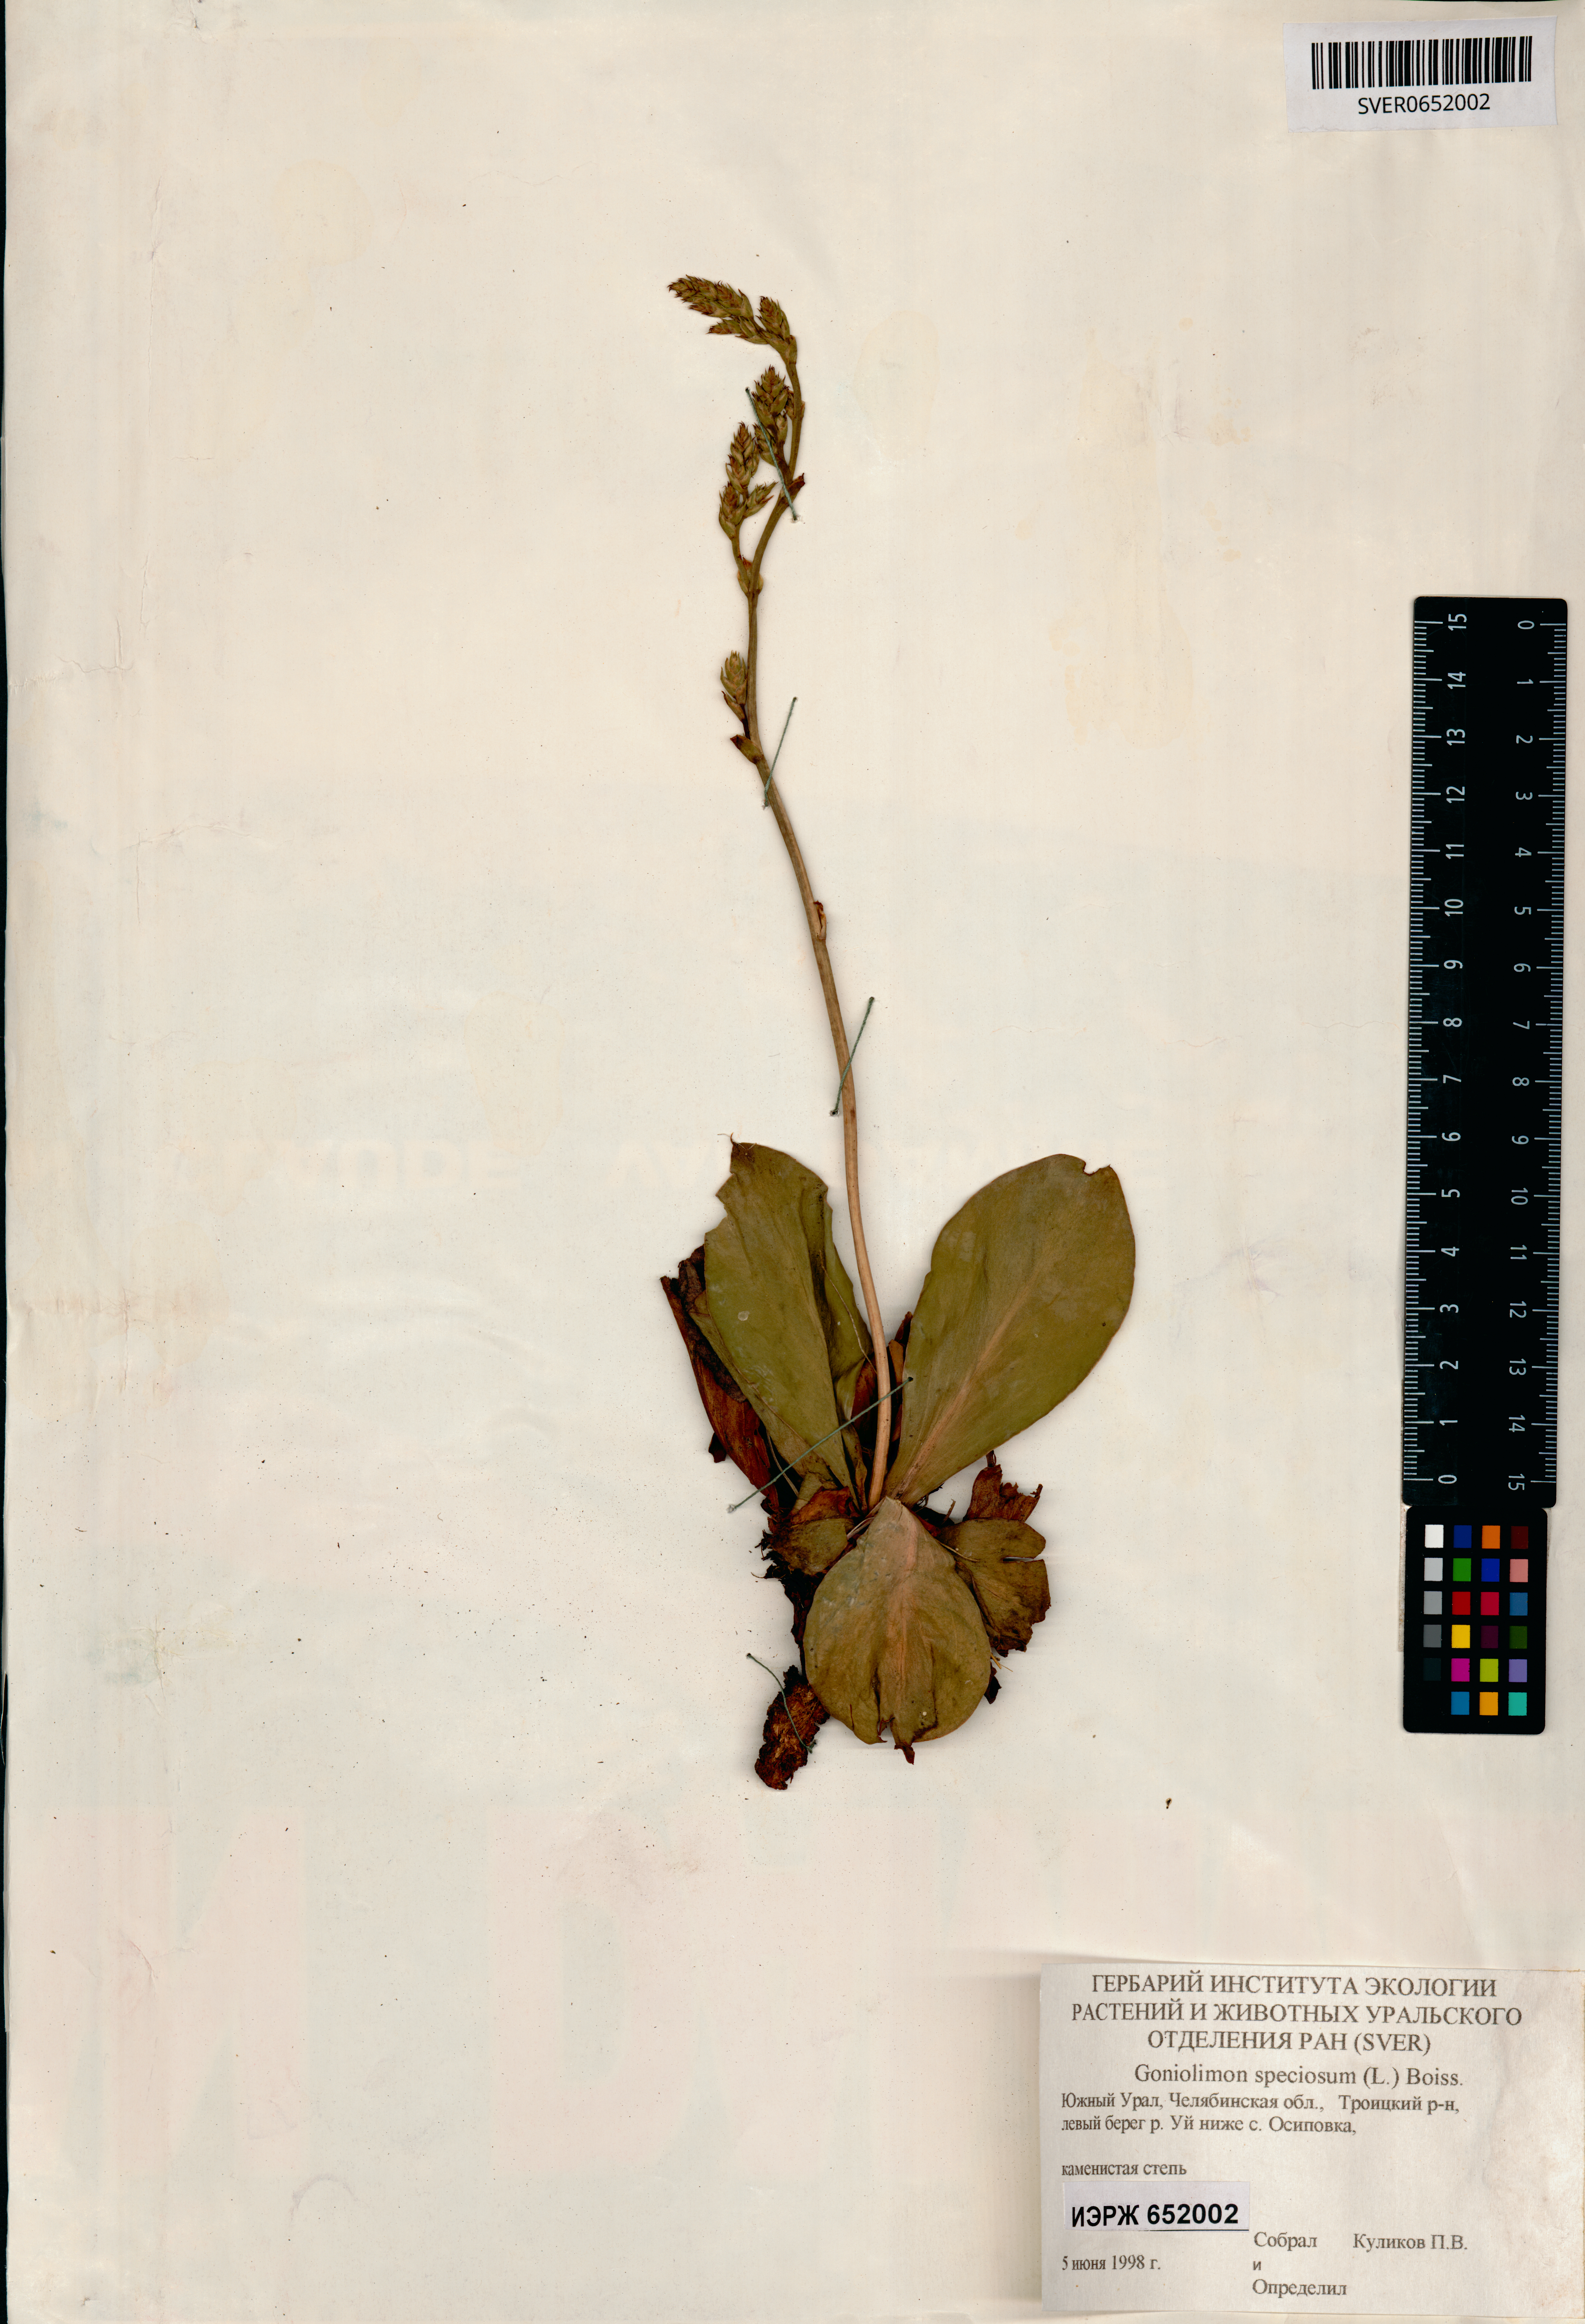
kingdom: Plantae
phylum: Tracheophyta
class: Magnoliopsida
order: Caryophyllales
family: Plumbaginaceae
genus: Goniolimon
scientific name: Goniolimon speciosum
